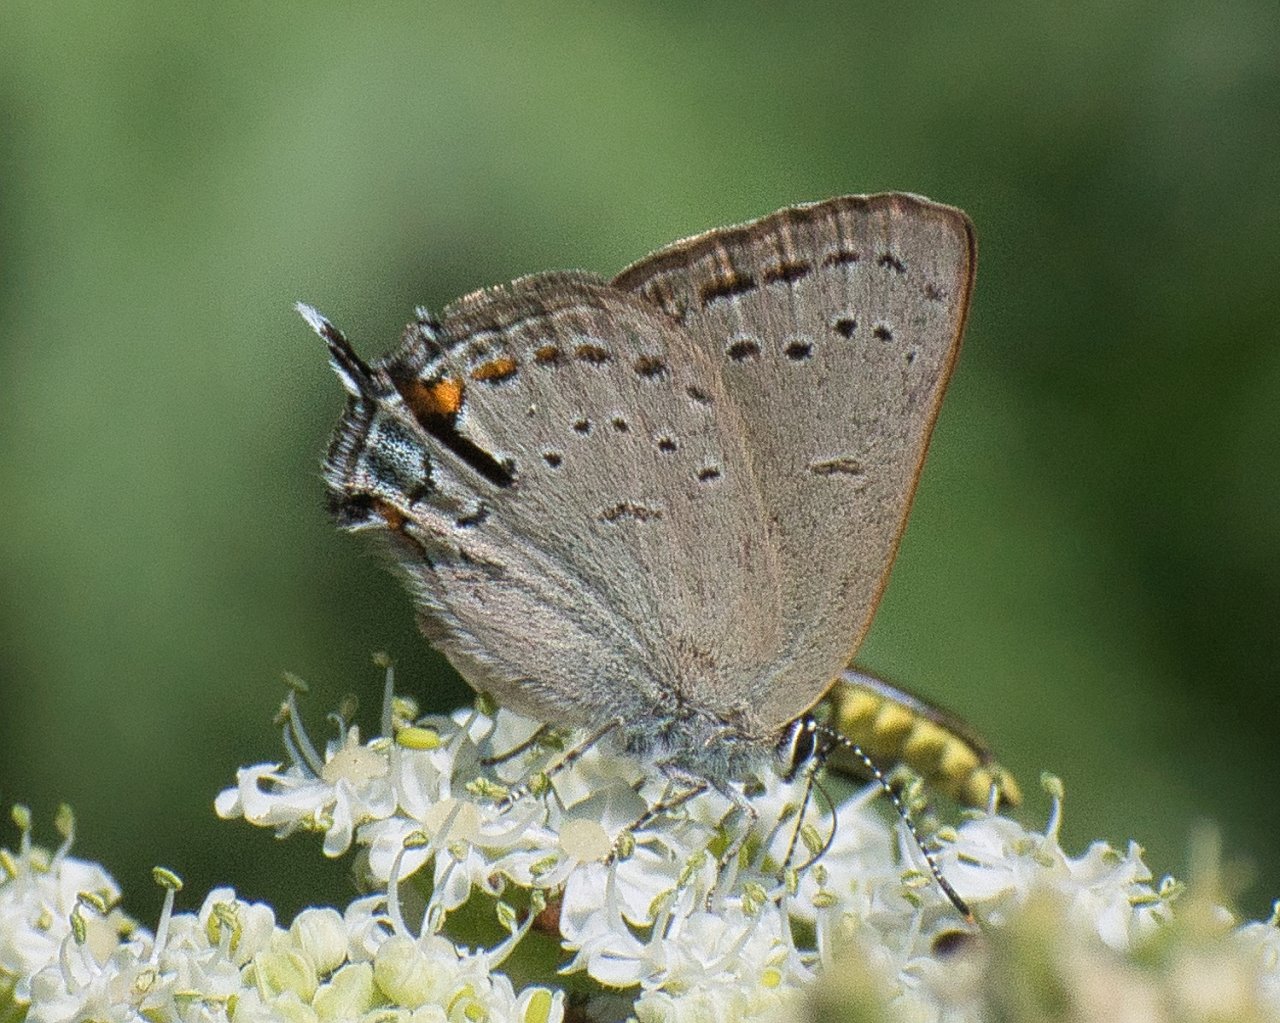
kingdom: Animalia
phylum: Arthropoda
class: Insecta
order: Lepidoptera
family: Lycaenidae
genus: Strymon
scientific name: Strymon sylvinus
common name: Sylvan Hairstreak
